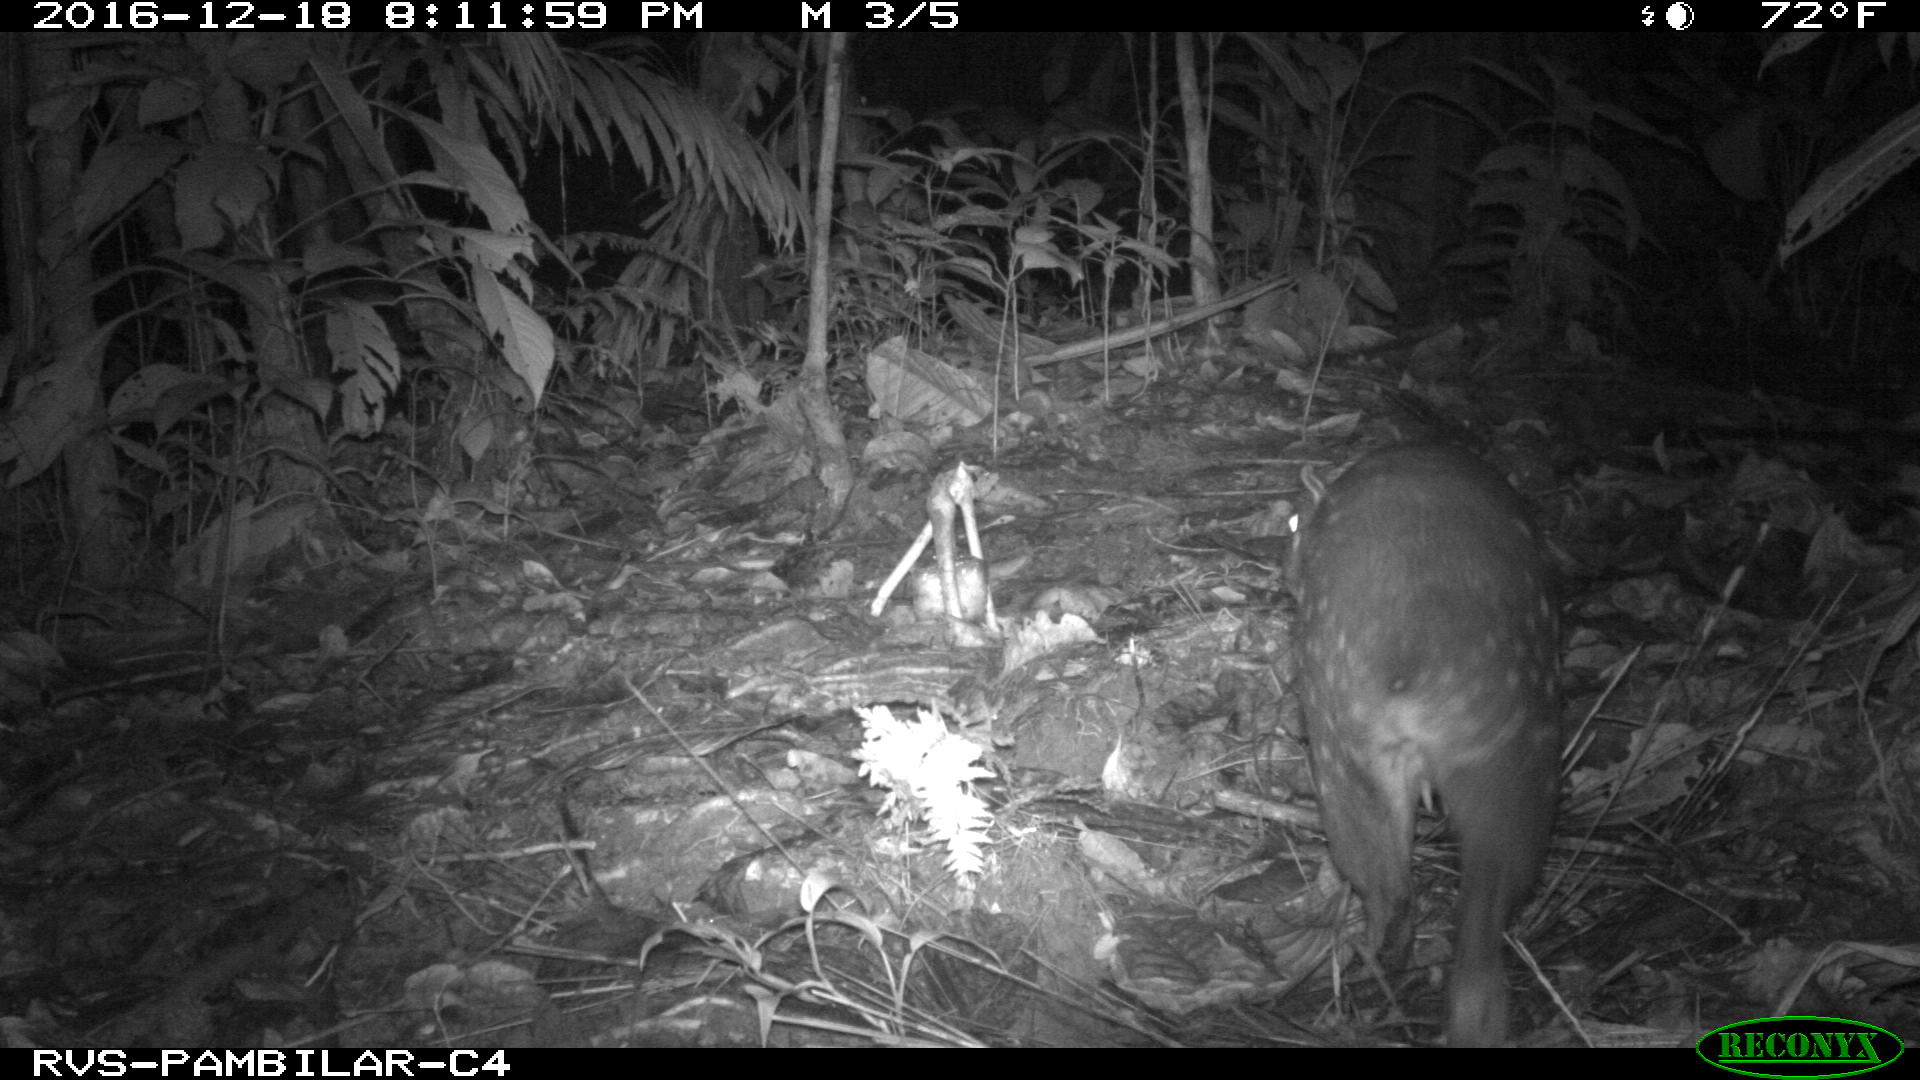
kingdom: Animalia
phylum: Chordata
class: Mammalia
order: Rodentia
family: Cuniculidae
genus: Cuniculus
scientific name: Cuniculus paca
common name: Lowland paca
